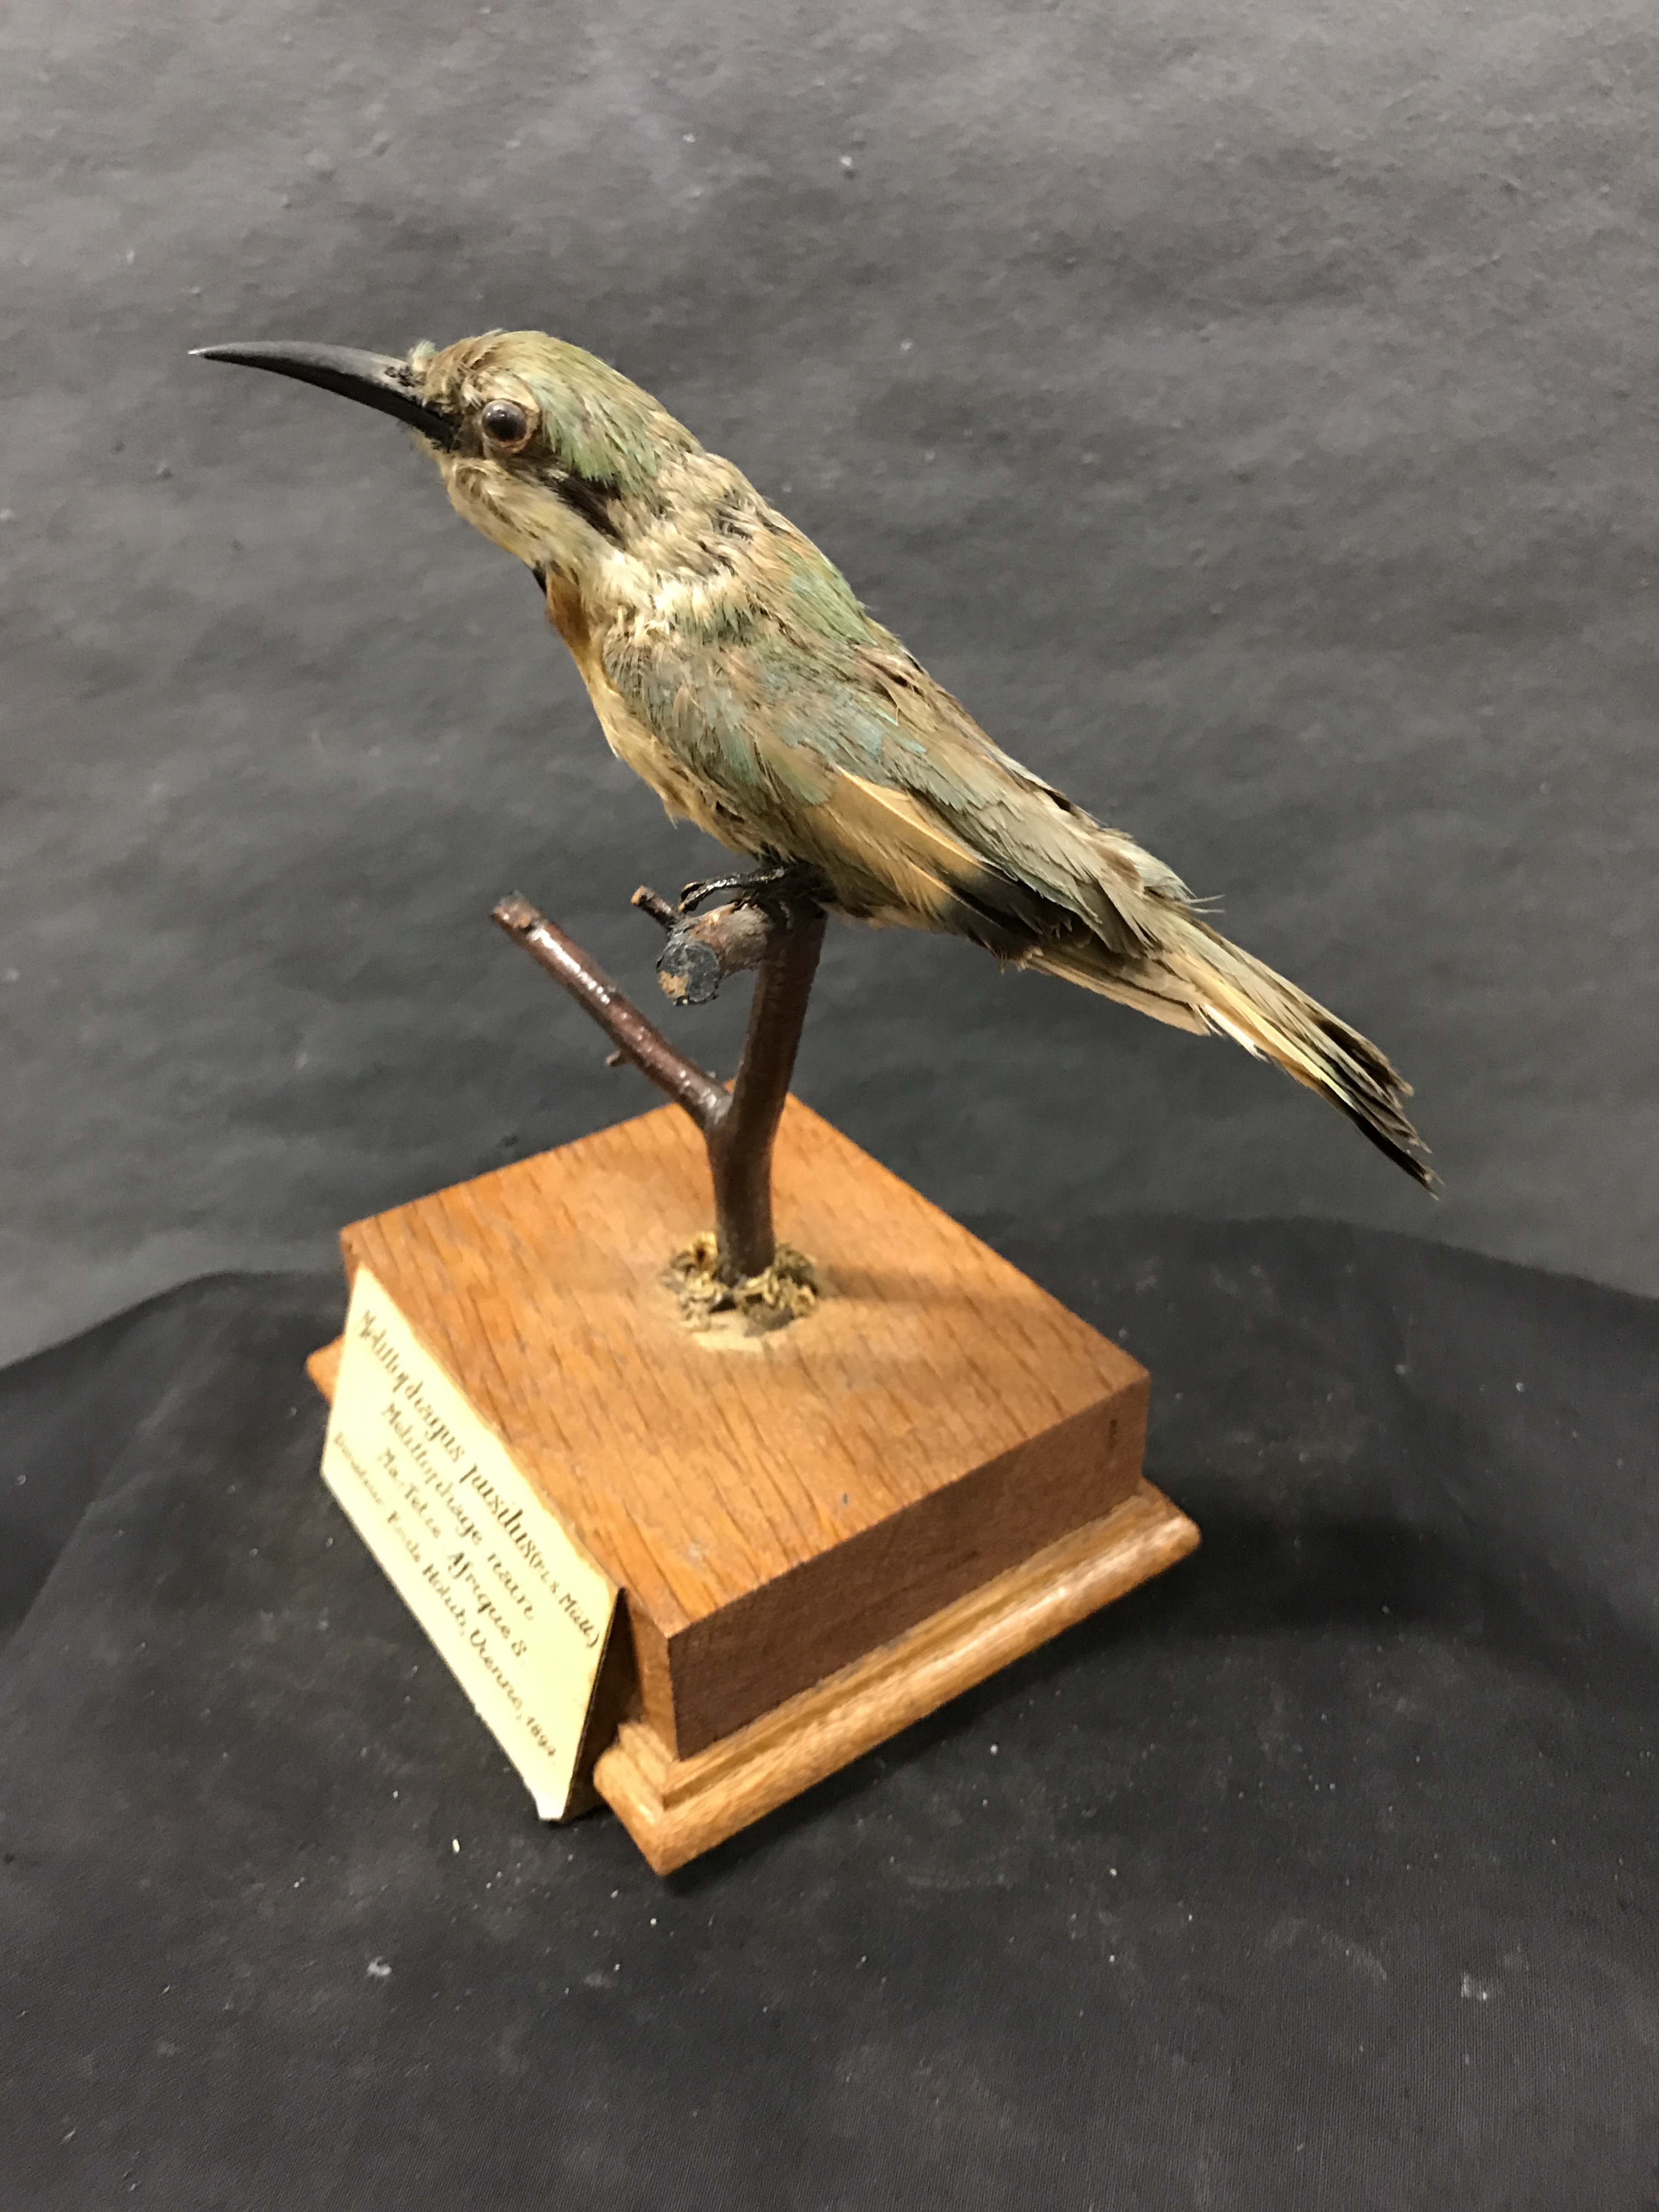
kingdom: Animalia
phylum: Chordata
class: Aves
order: Coraciiformes
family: Meropidae
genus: Merops
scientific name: Merops pusillus
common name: Little bee-eater
